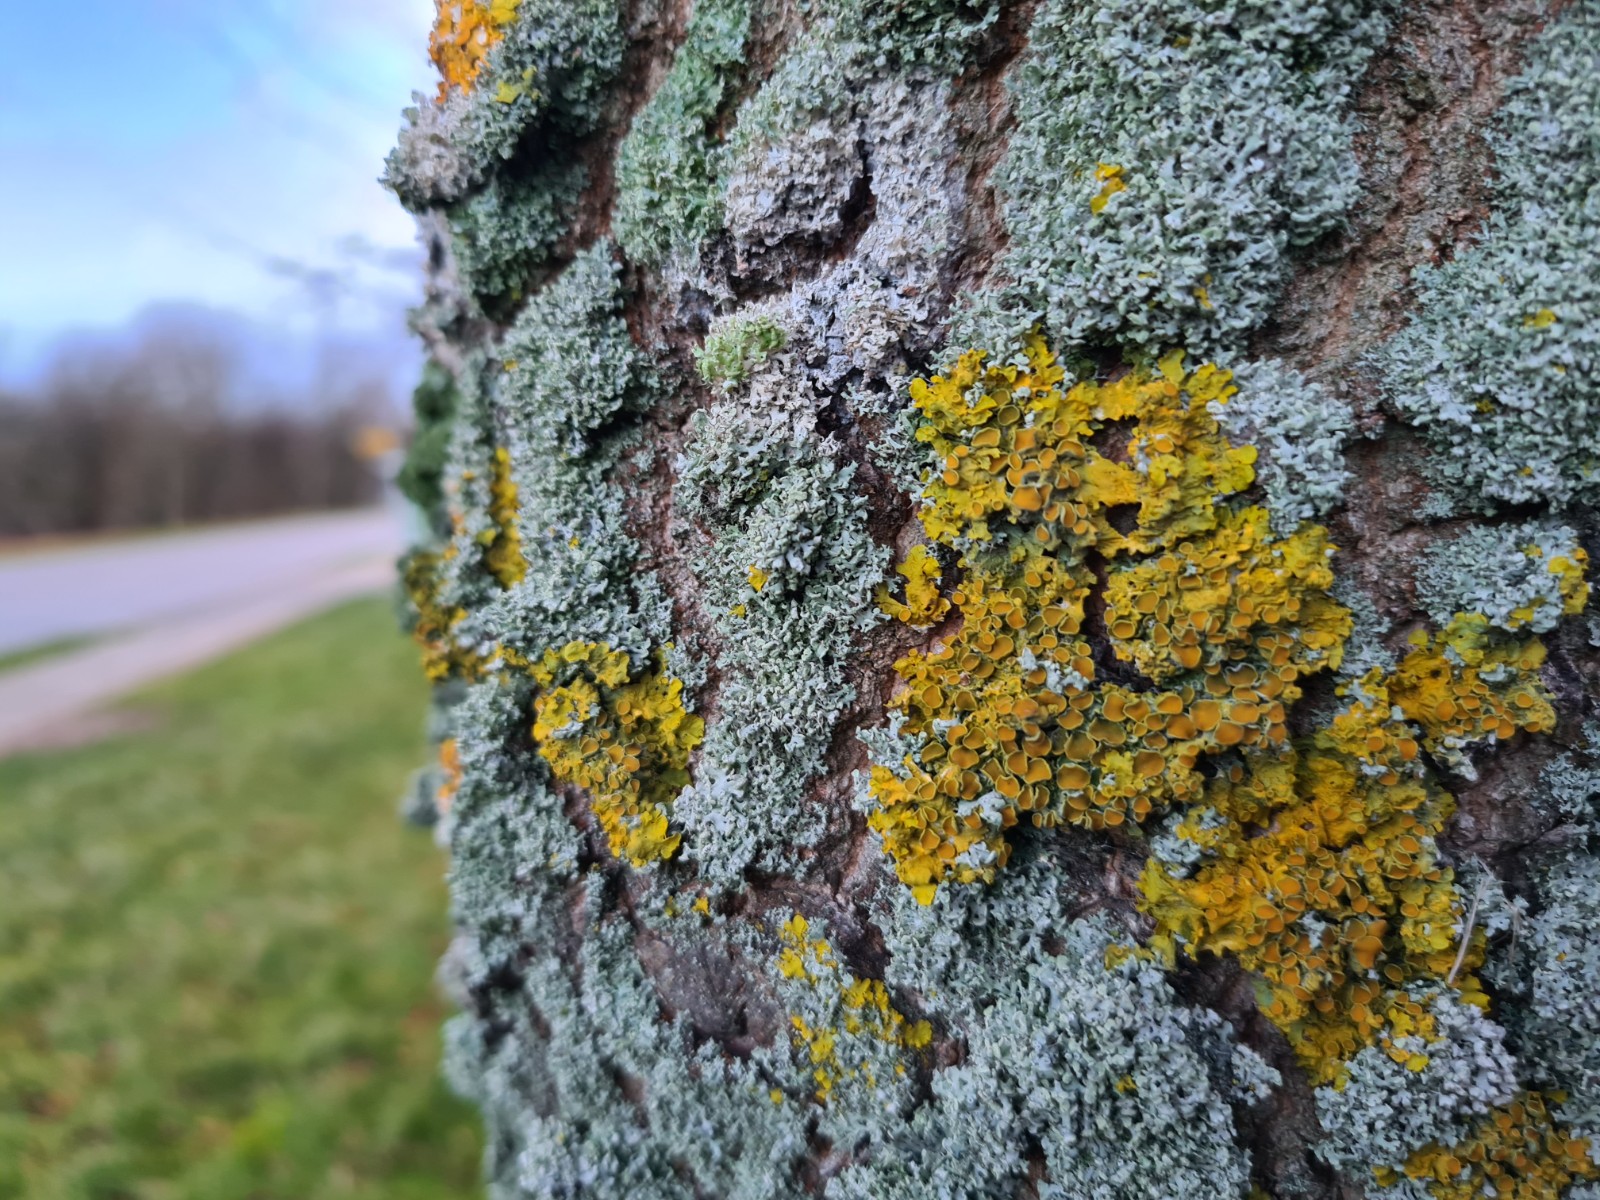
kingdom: Fungi
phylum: Ascomycota
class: Lecanoromycetes
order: Caliciales
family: Physciaceae
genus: Physcia
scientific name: Physcia tenella
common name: spæd rosetlav
